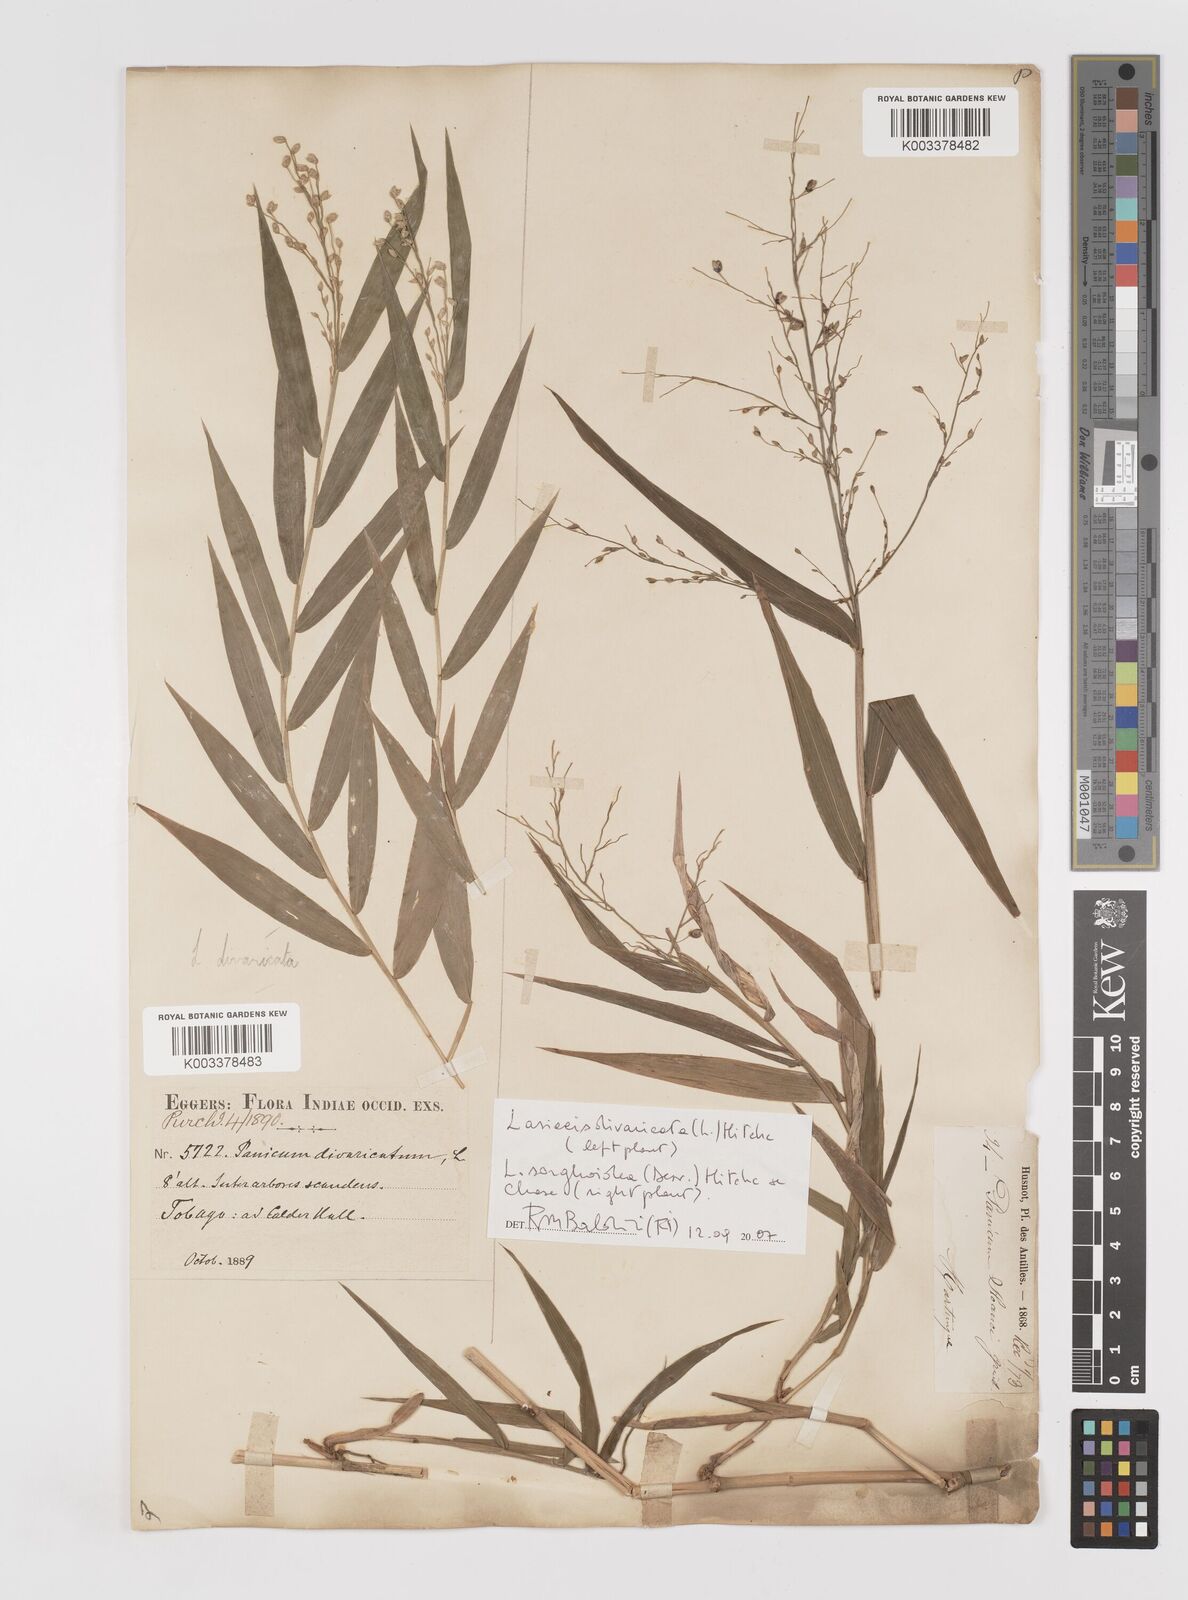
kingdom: Plantae
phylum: Tracheophyta
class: Liliopsida
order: Poales
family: Poaceae
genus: Lasiacis
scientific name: Lasiacis divaricata
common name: Smallcane
